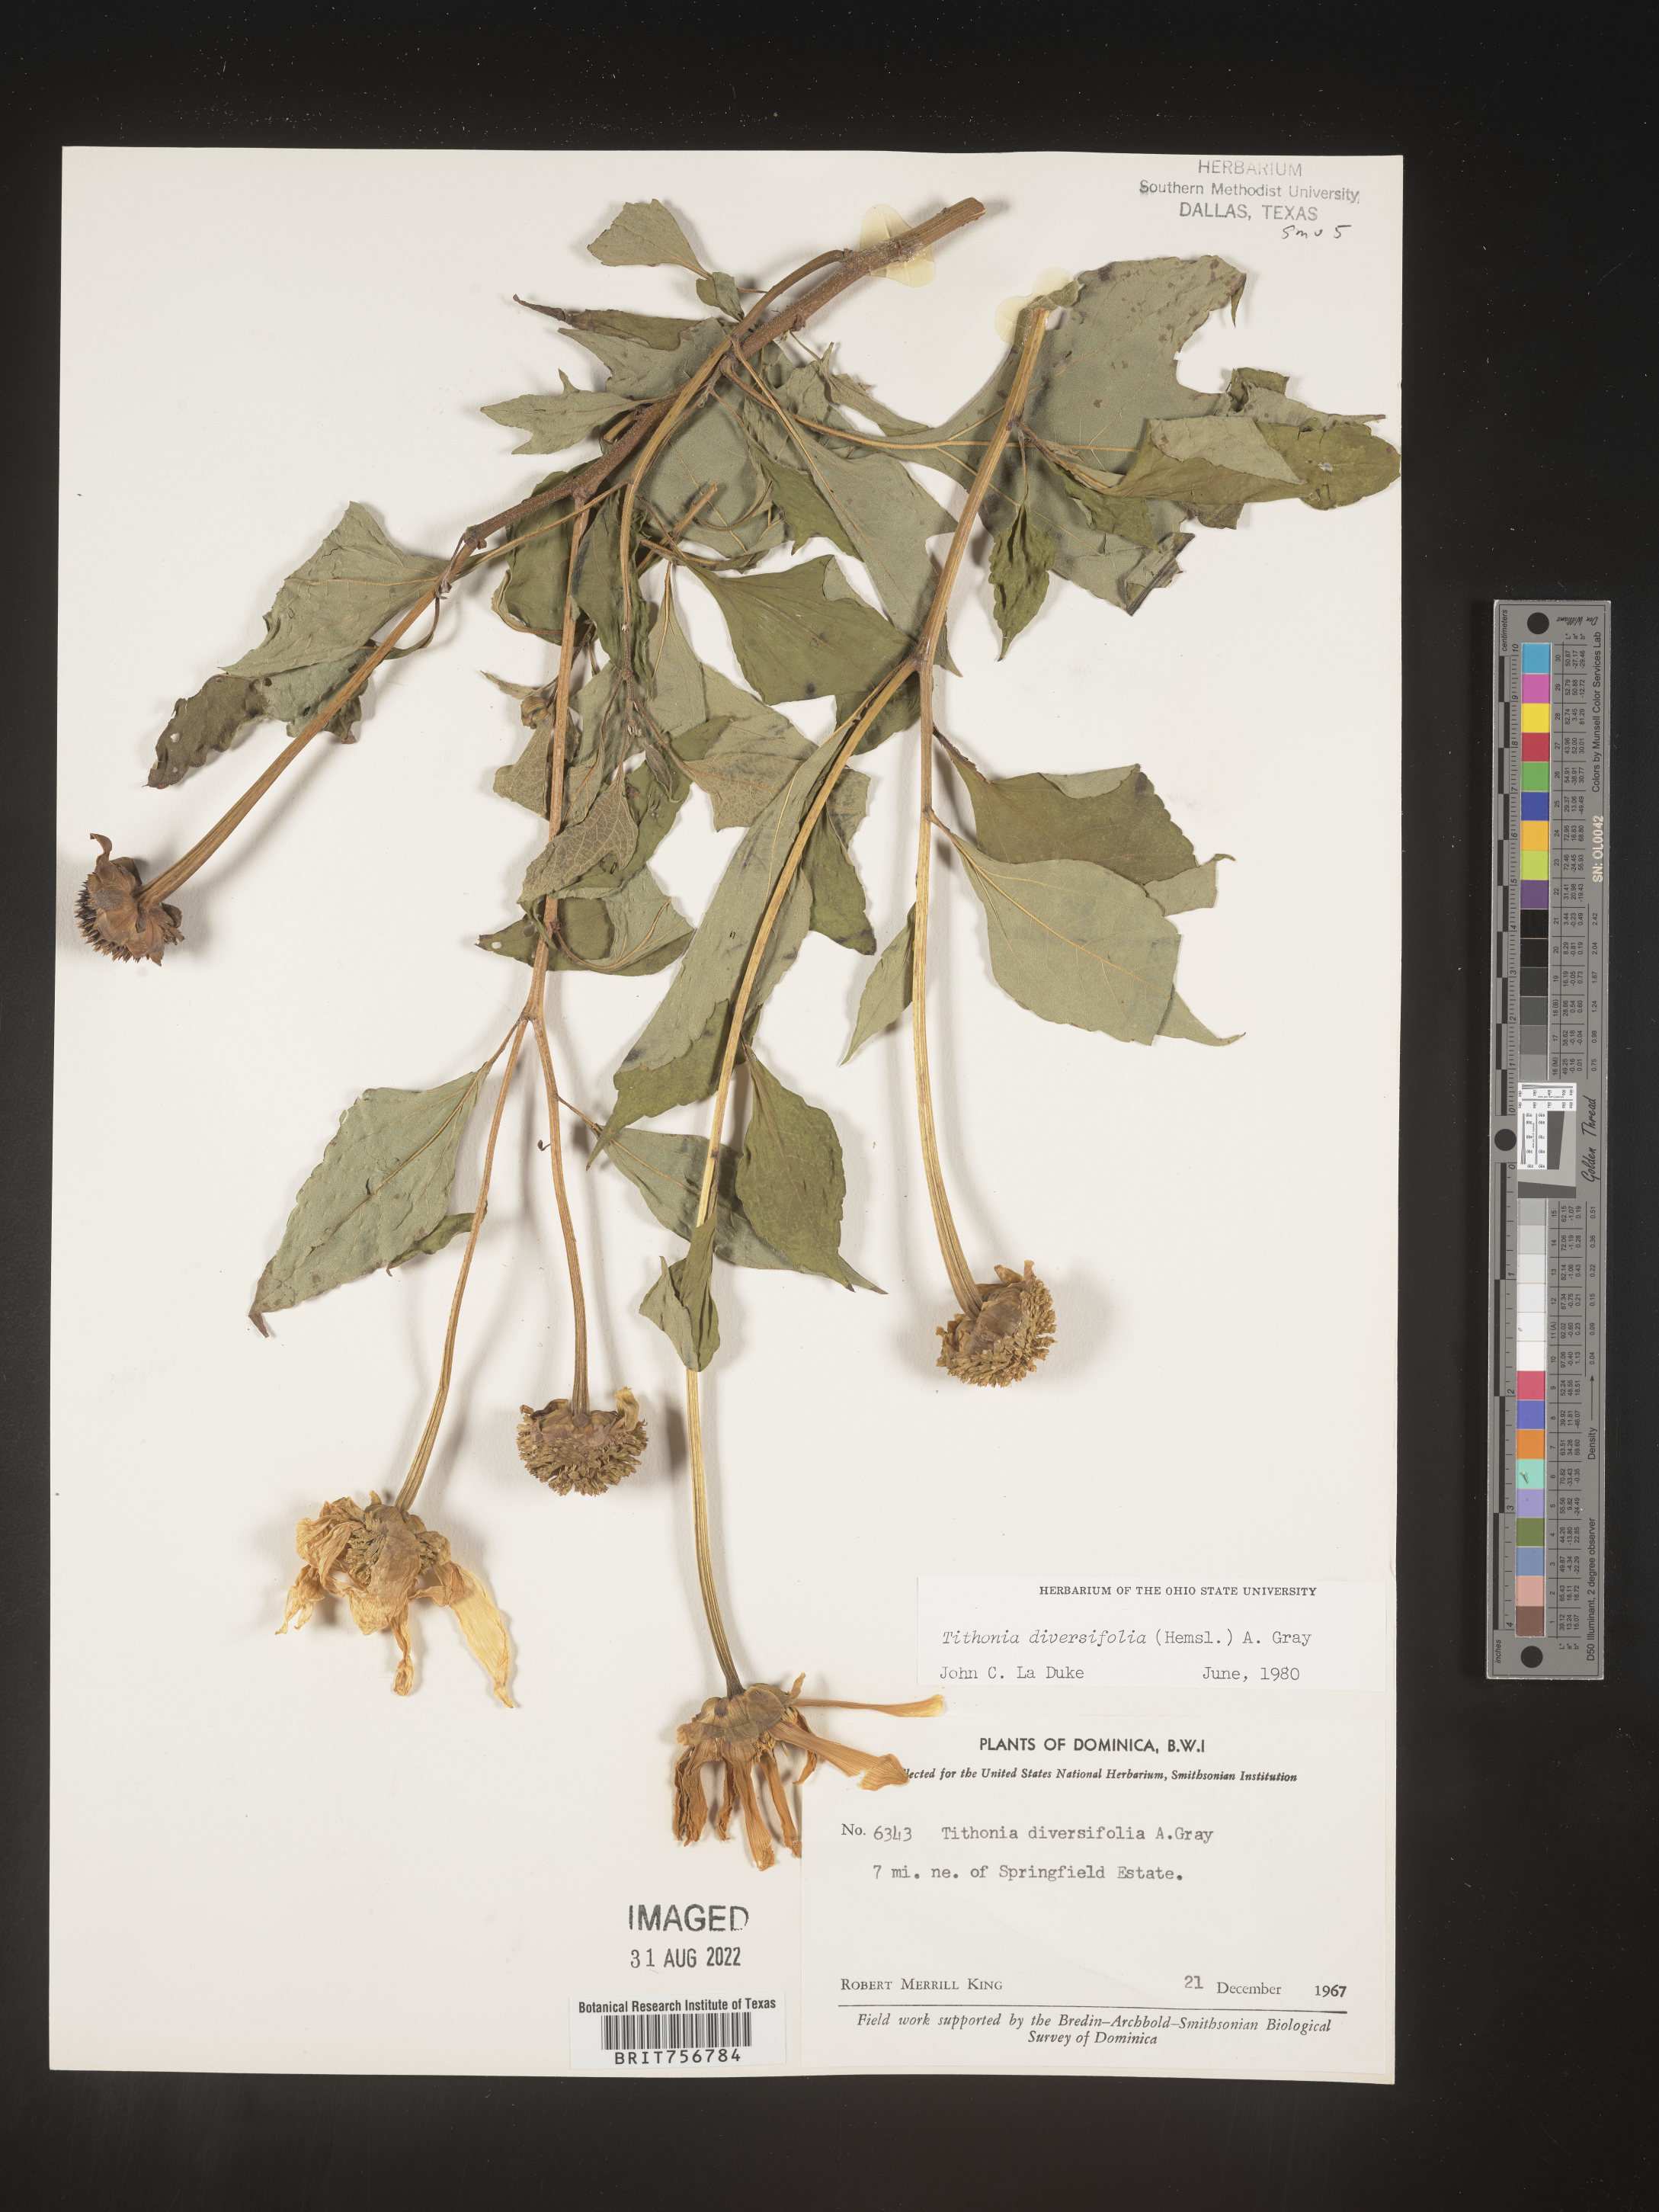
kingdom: Plantae
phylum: Tracheophyta
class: Magnoliopsida
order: Asterales
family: Asteraceae
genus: Tithonia
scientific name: Tithonia
